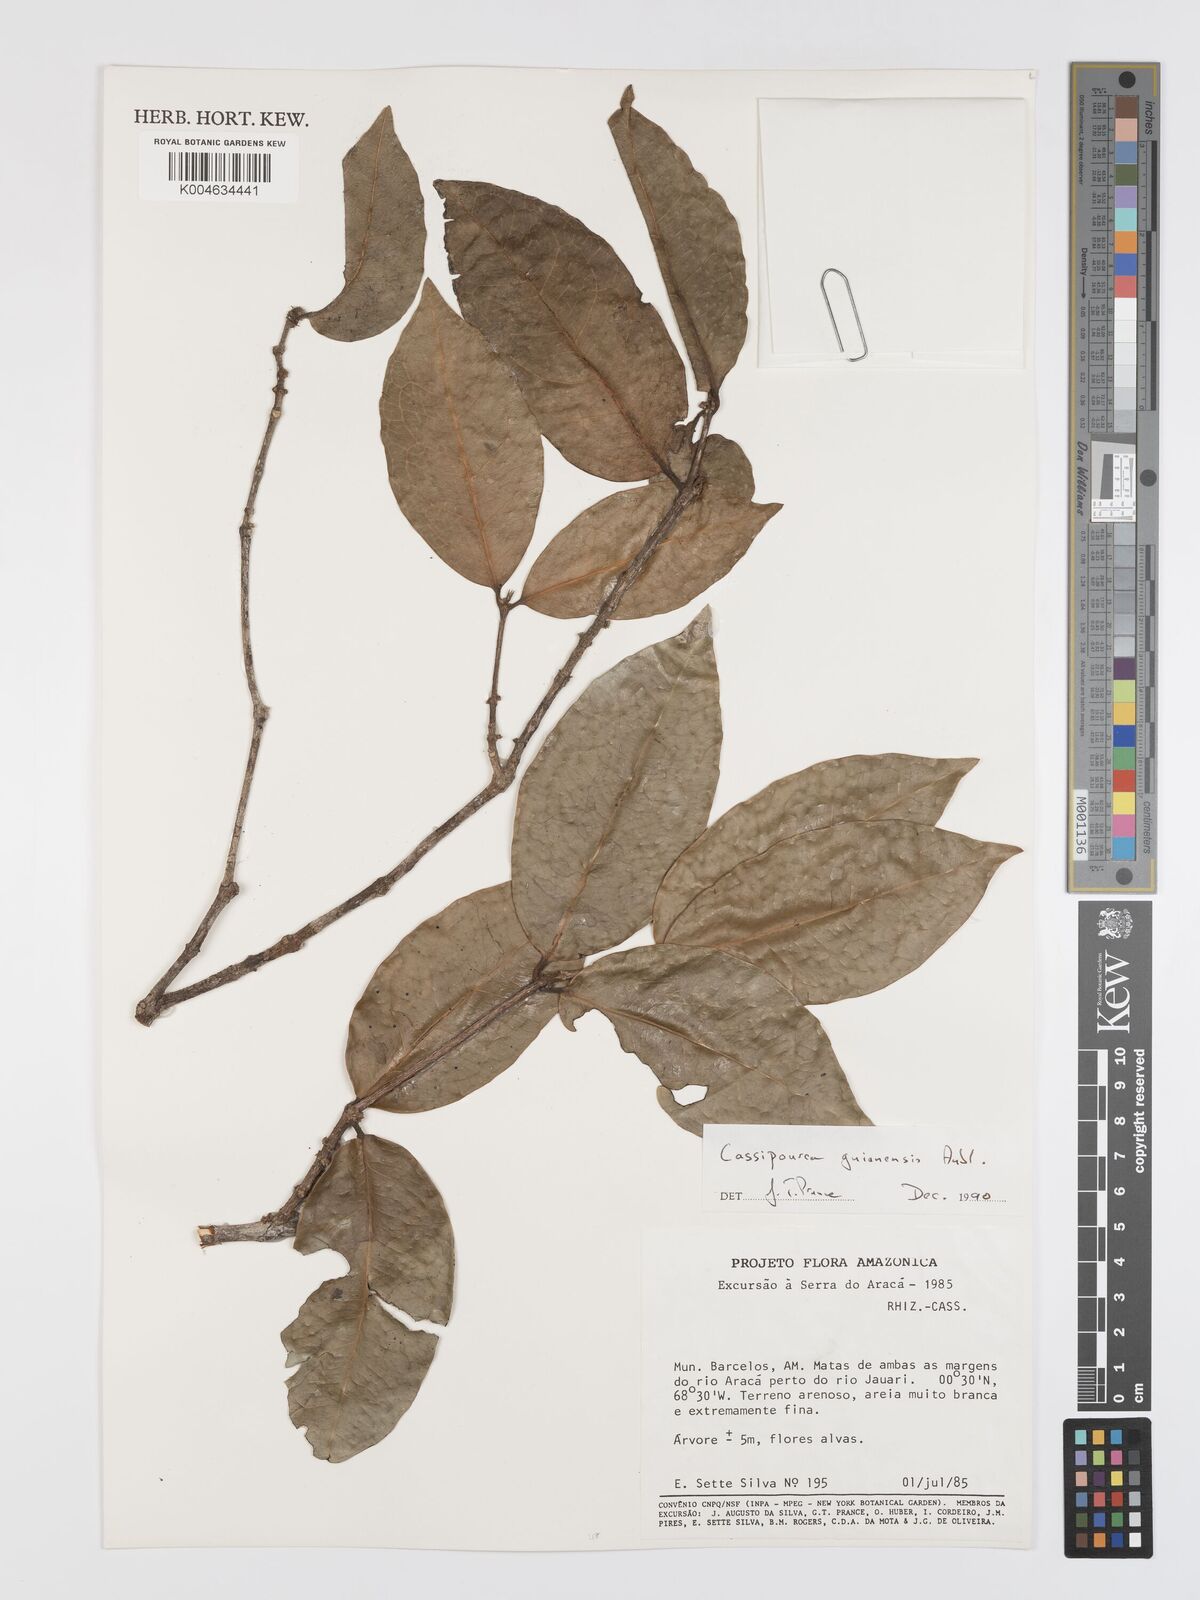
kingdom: Plantae
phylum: Tracheophyta
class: Magnoliopsida
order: Malpighiales
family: Rhizophoraceae
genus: Cassipourea
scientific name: Cassipourea guianensis
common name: Bastard waterwood
